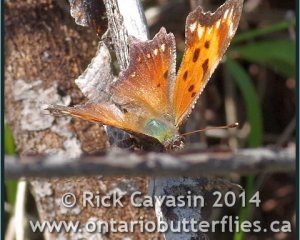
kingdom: Animalia
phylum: Arthropoda
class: Insecta
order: Lepidoptera
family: Nymphalidae
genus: Polygonia
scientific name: Polygonia progne
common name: Gray Comma
